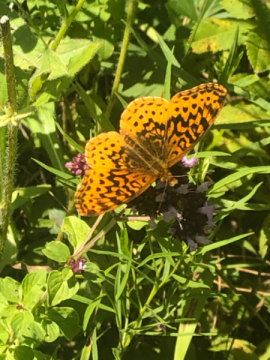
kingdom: Animalia
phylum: Arthropoda
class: Insecta
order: Lepidoptera
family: Nymphalidae
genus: Clossiana
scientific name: Clossiana toddi
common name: Meadow Fritillary
